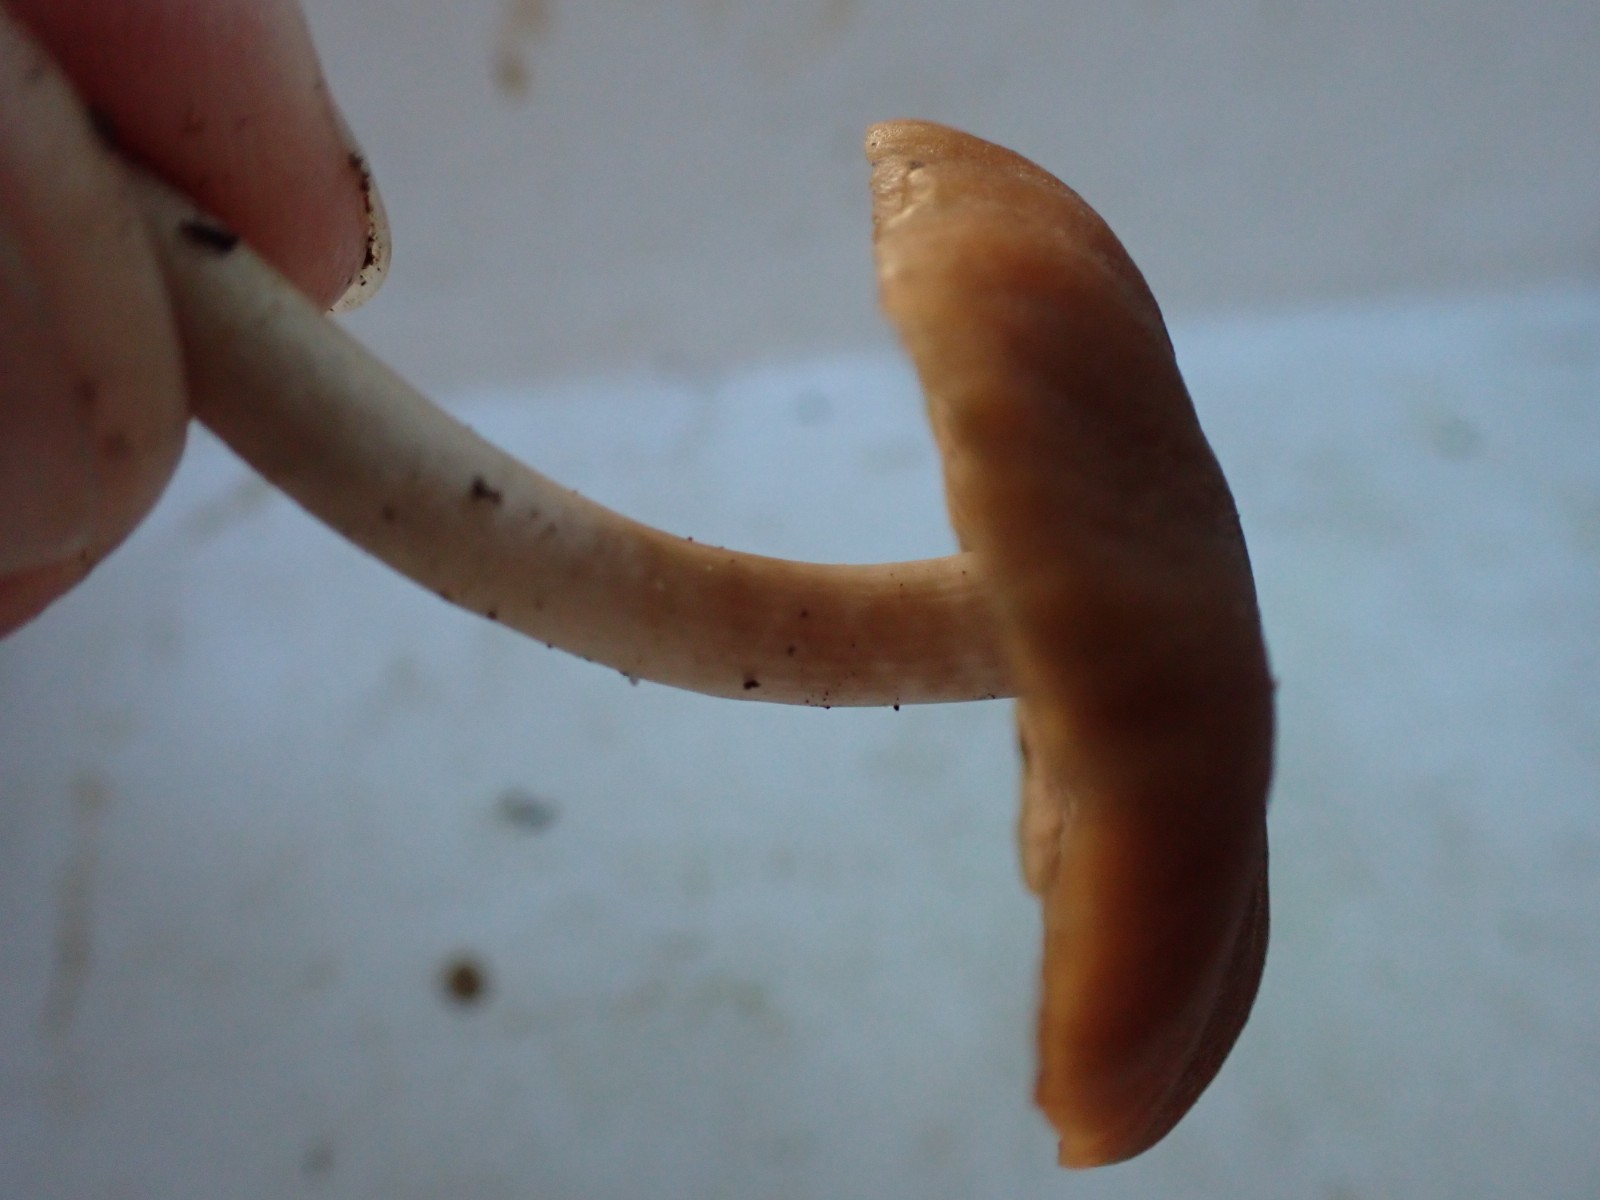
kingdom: Fungi
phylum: Basidiomycota
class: Agaricomycetes
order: Agaricales
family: Psathyrellaceae
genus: Psathyrella
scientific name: Psathyrella piluliformis
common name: lysstokket mørkhat
